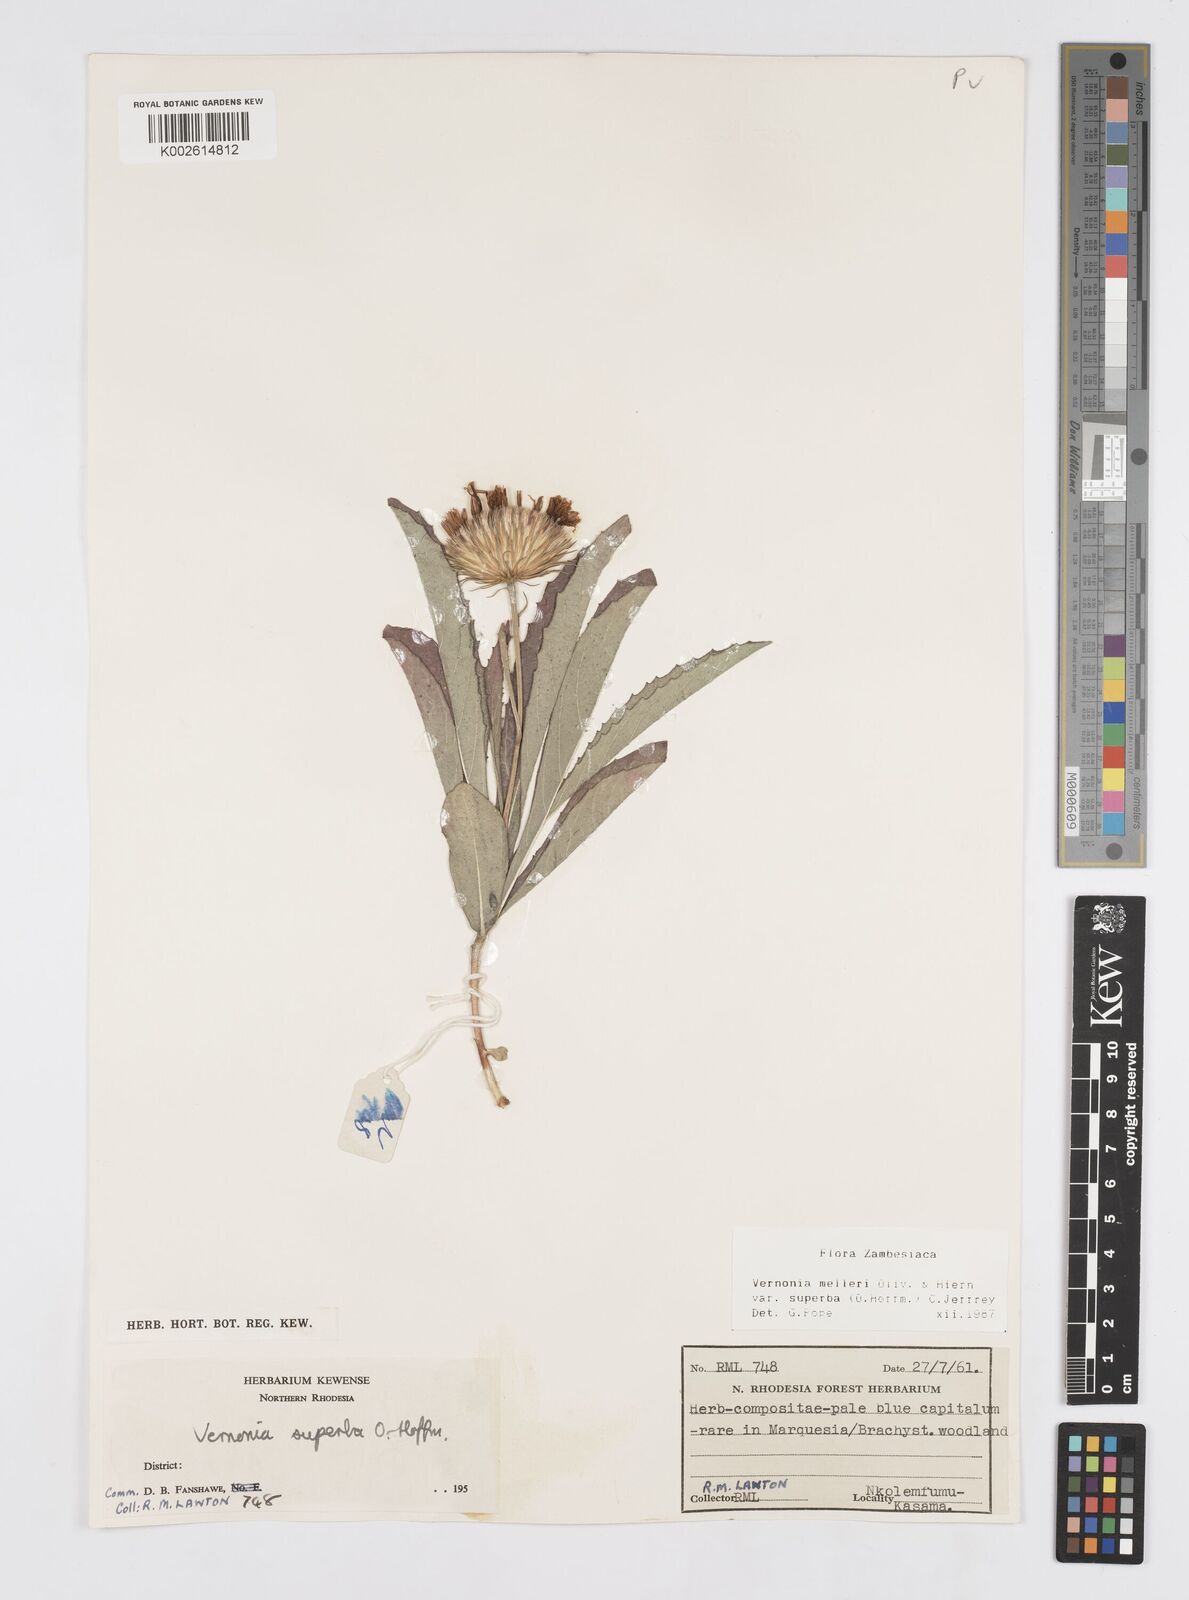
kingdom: Plantae
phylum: Tracheophyta
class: Magnoliopsida
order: Asterales
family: Asteraceae
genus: Linzia
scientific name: Linzia melleri
